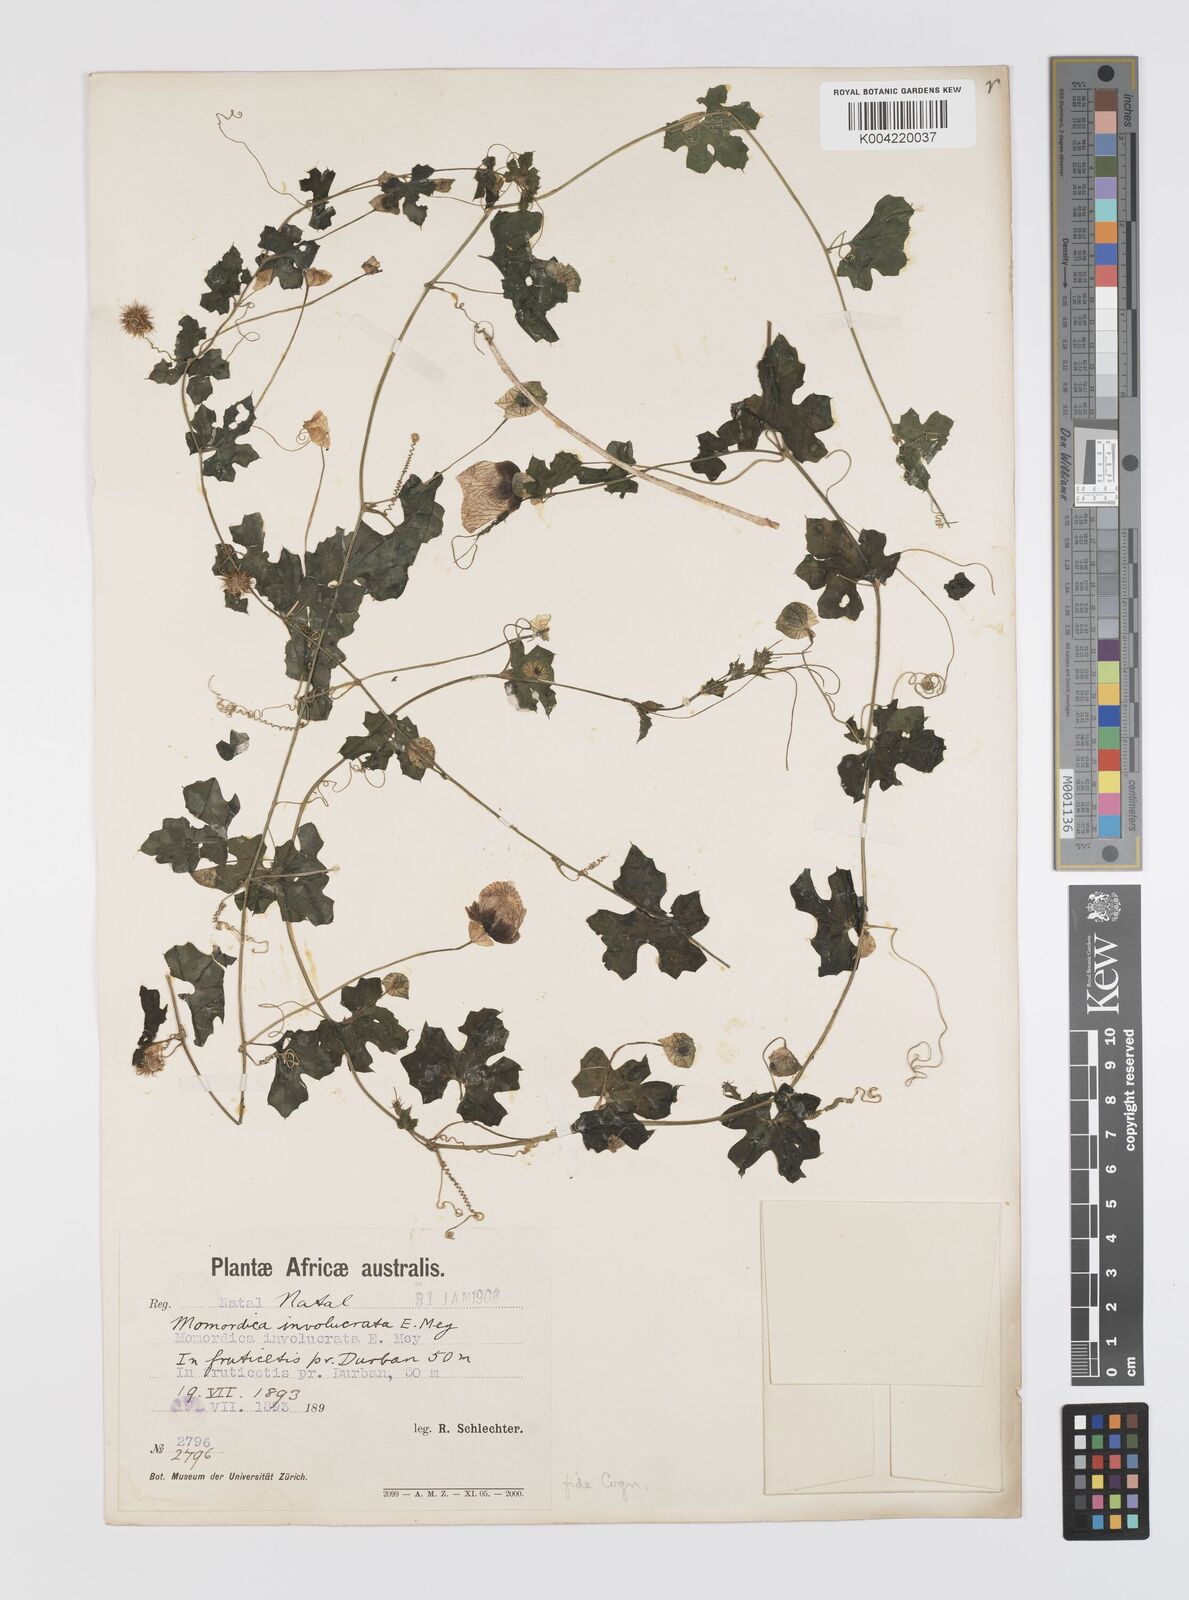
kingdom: Plantae
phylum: Tracheophyta
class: Magnoliopsida
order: Cucurbitales
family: Cucurbitaceae
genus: Momordica
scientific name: Momordica balsamina
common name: Southern balsampear
